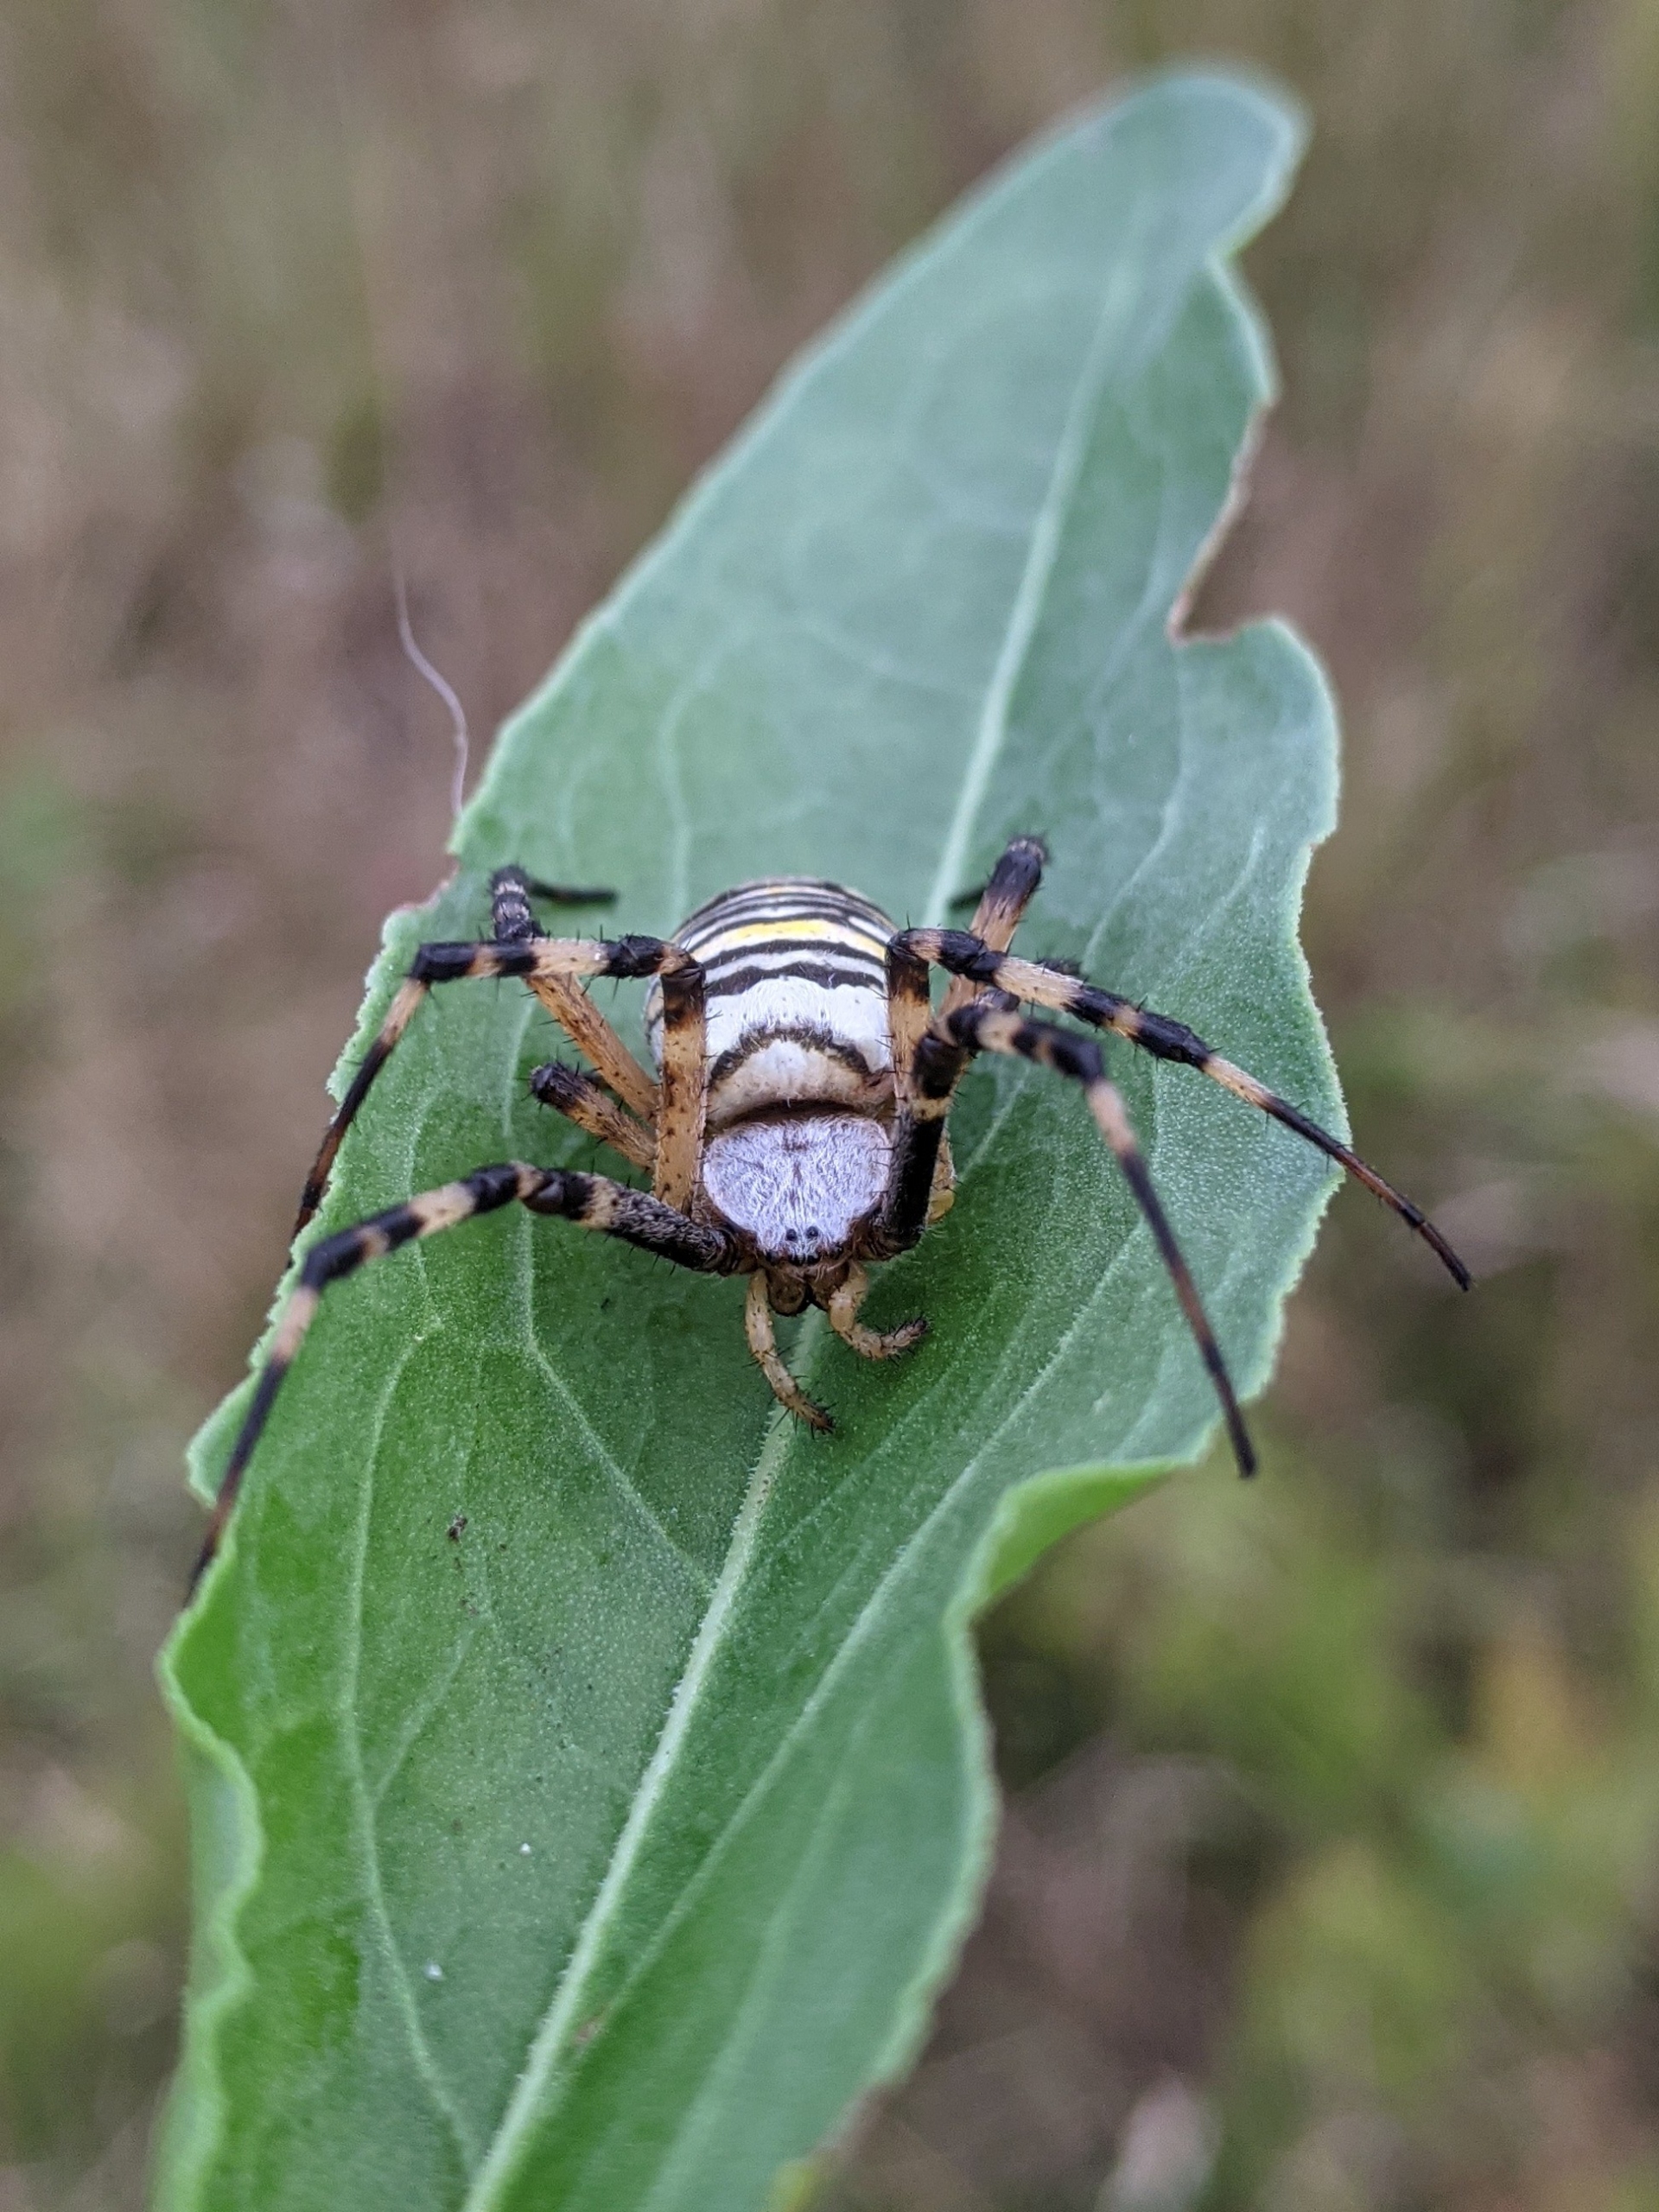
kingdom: Animalia
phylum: Arthropoda
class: Arachnida
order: Araneae
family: Araneidae
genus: Argiope
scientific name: Argiope bruennichi
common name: Hvepseedderkop
